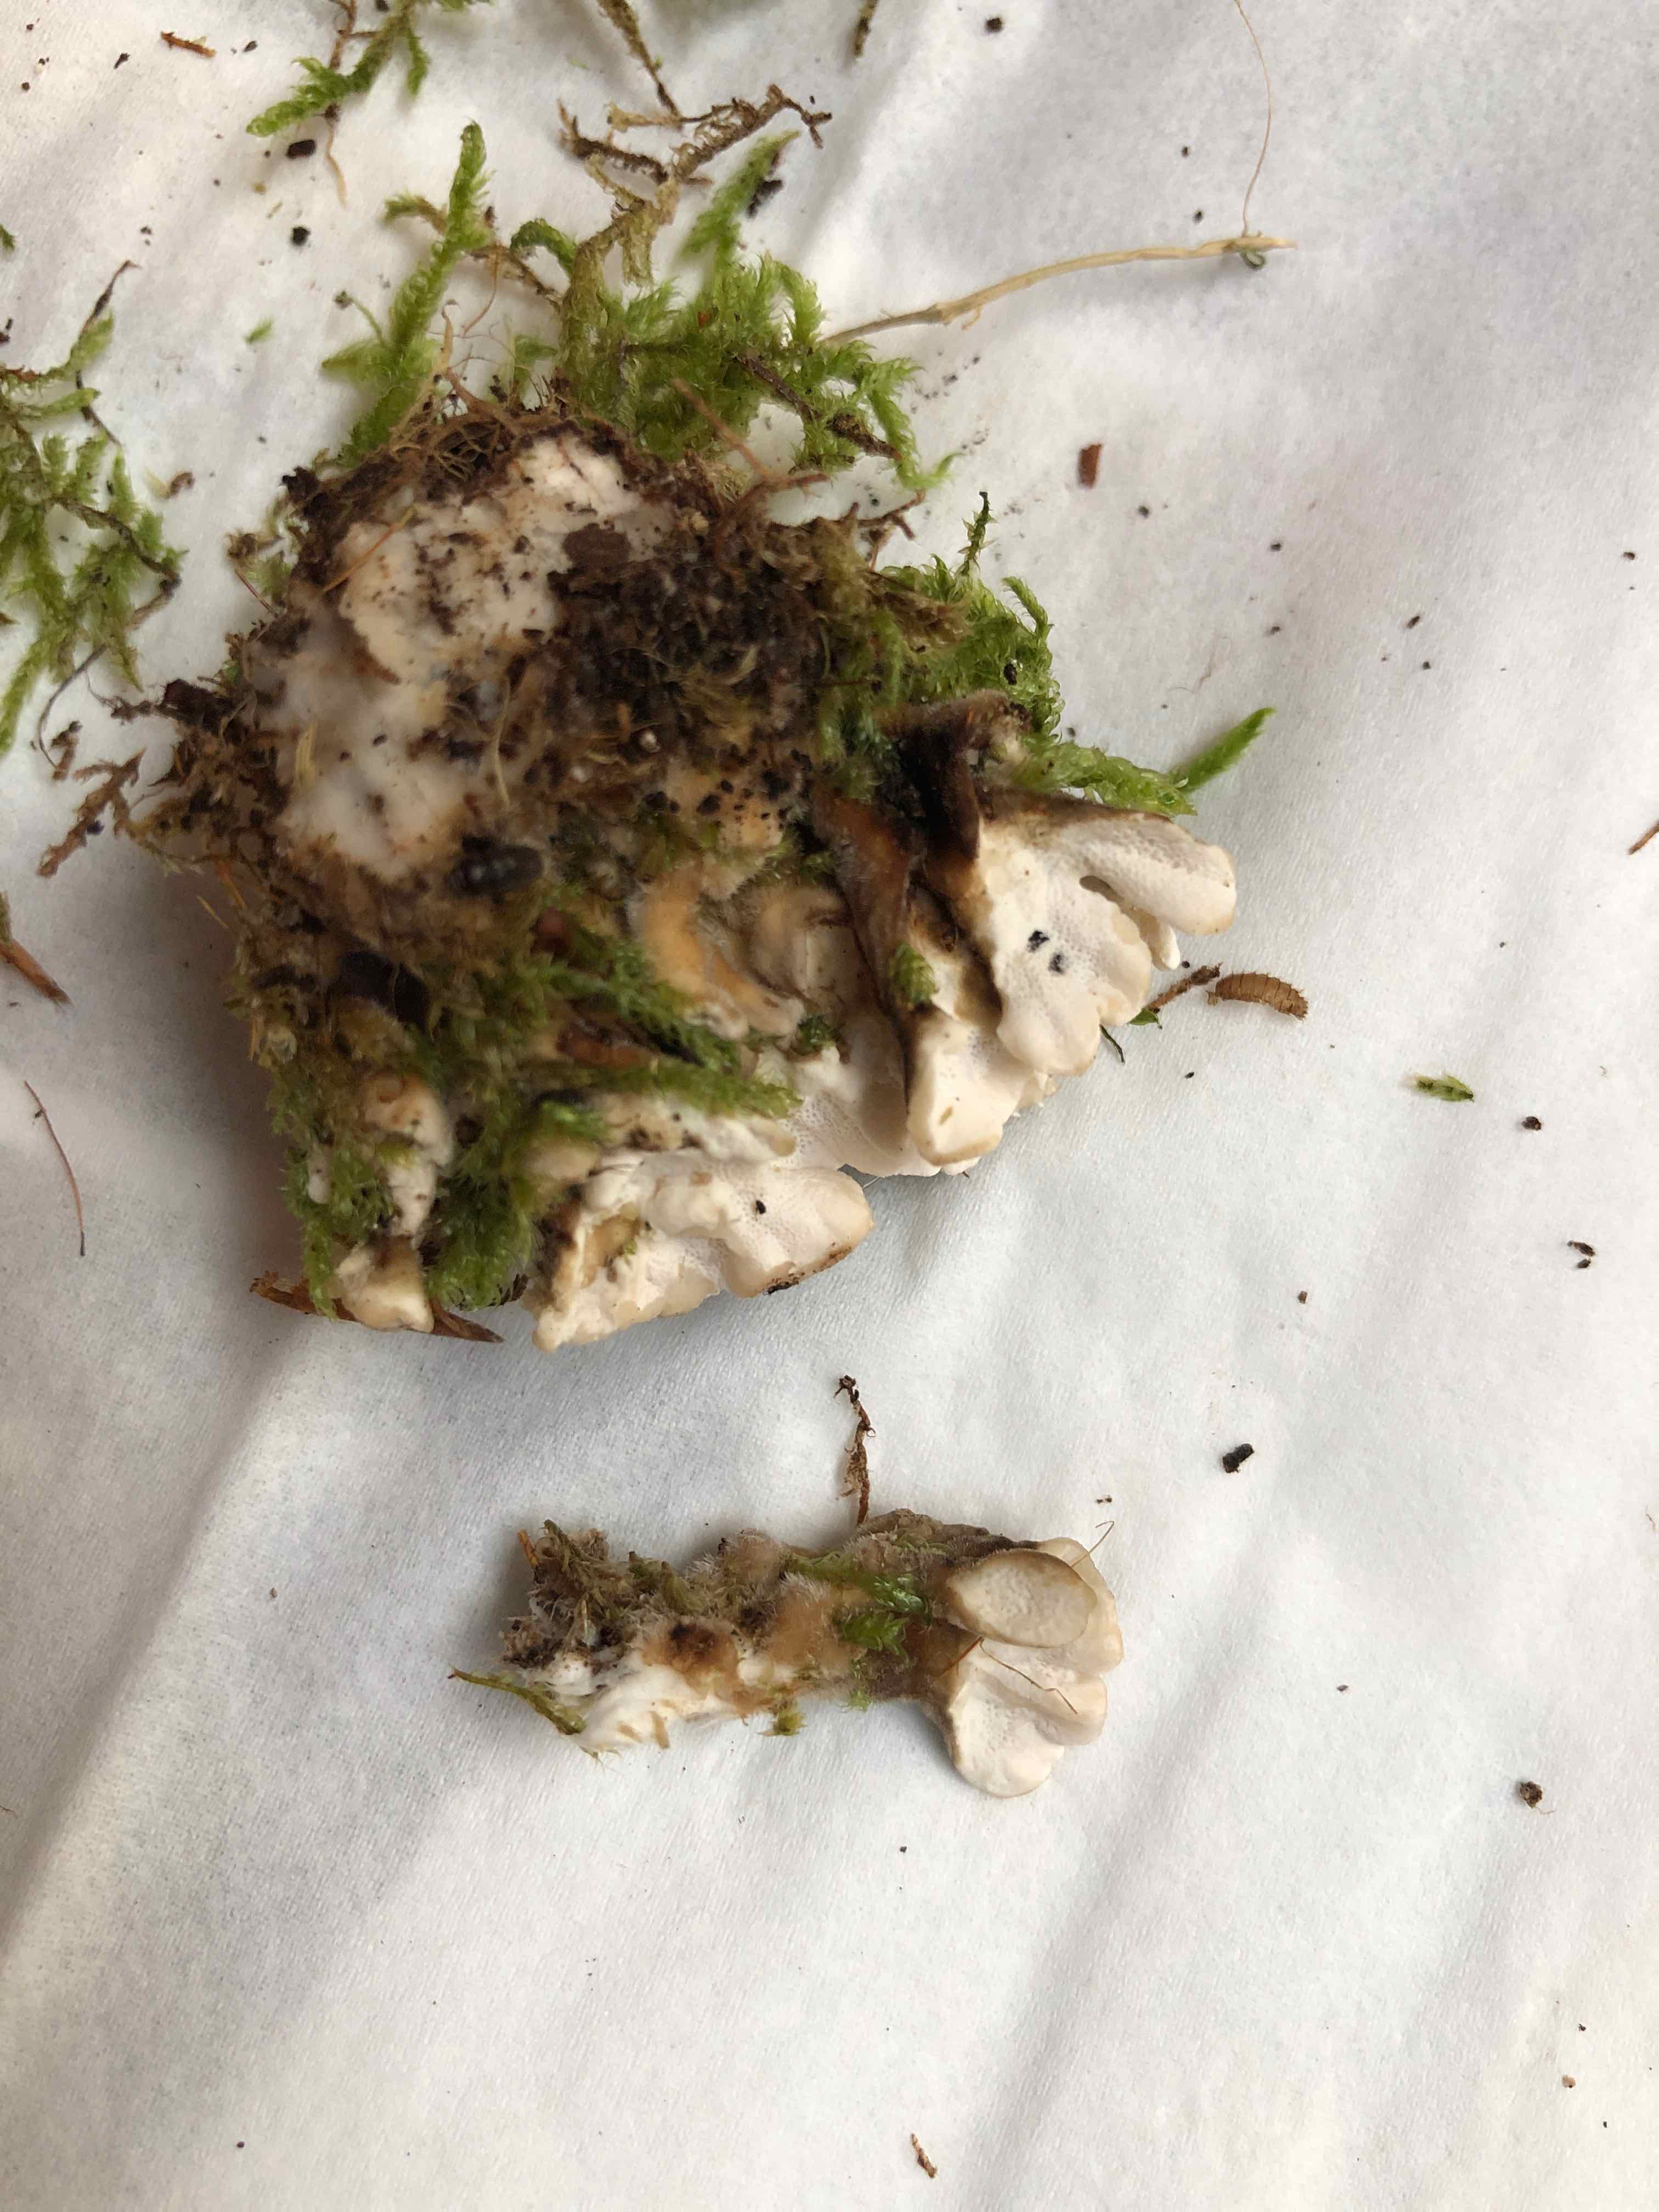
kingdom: Fungi
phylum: Basidiomycota
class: Agaricomycetes
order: Polyporales
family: Polyporaceae
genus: Trametes
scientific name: Trametes versicolor
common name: broget læderporesvamp
